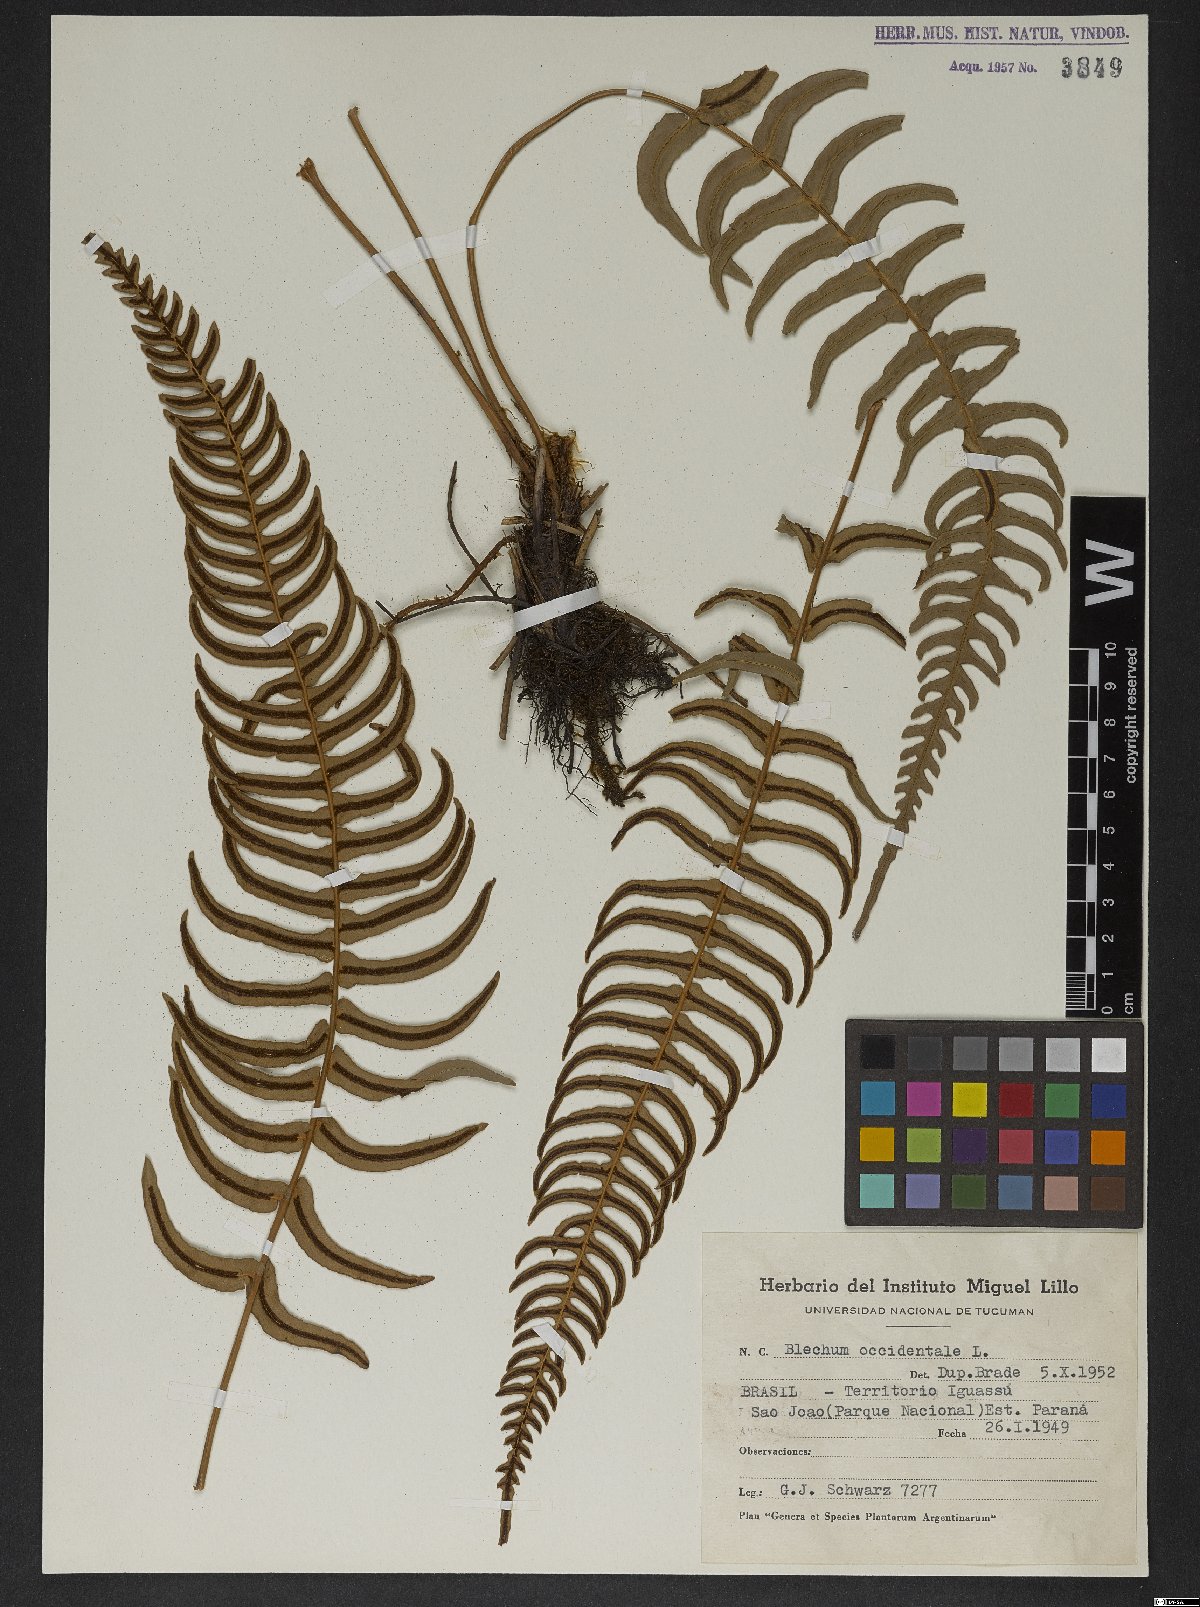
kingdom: Plantae
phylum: Tracheophyta
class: Polypodiopsida
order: Polypodiales
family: Blechnaceae
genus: Blechnum
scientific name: Blechnum occidentale
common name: Hammock fern
